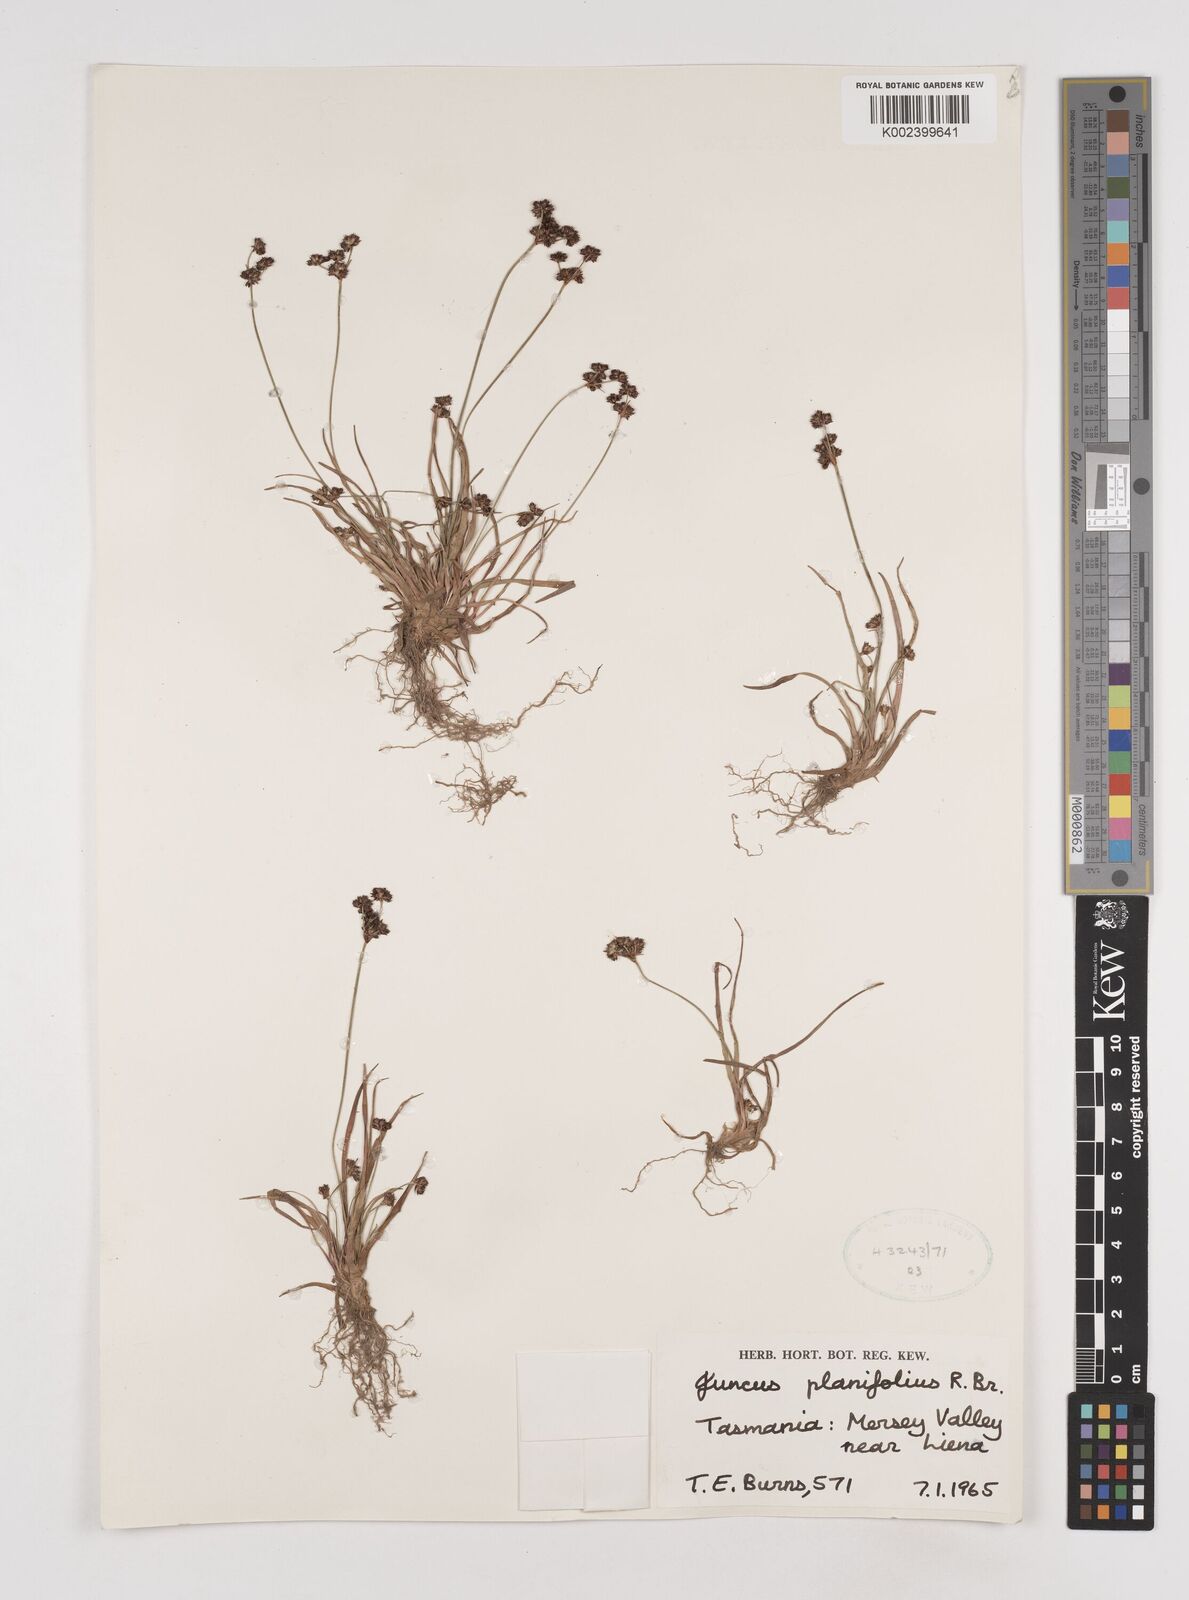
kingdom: Plantae
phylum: Tracheophyta
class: Liliopsida
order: Poales
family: Juncaceae
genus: Juncus
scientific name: Juncus planifolius
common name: Broadleaf rush
